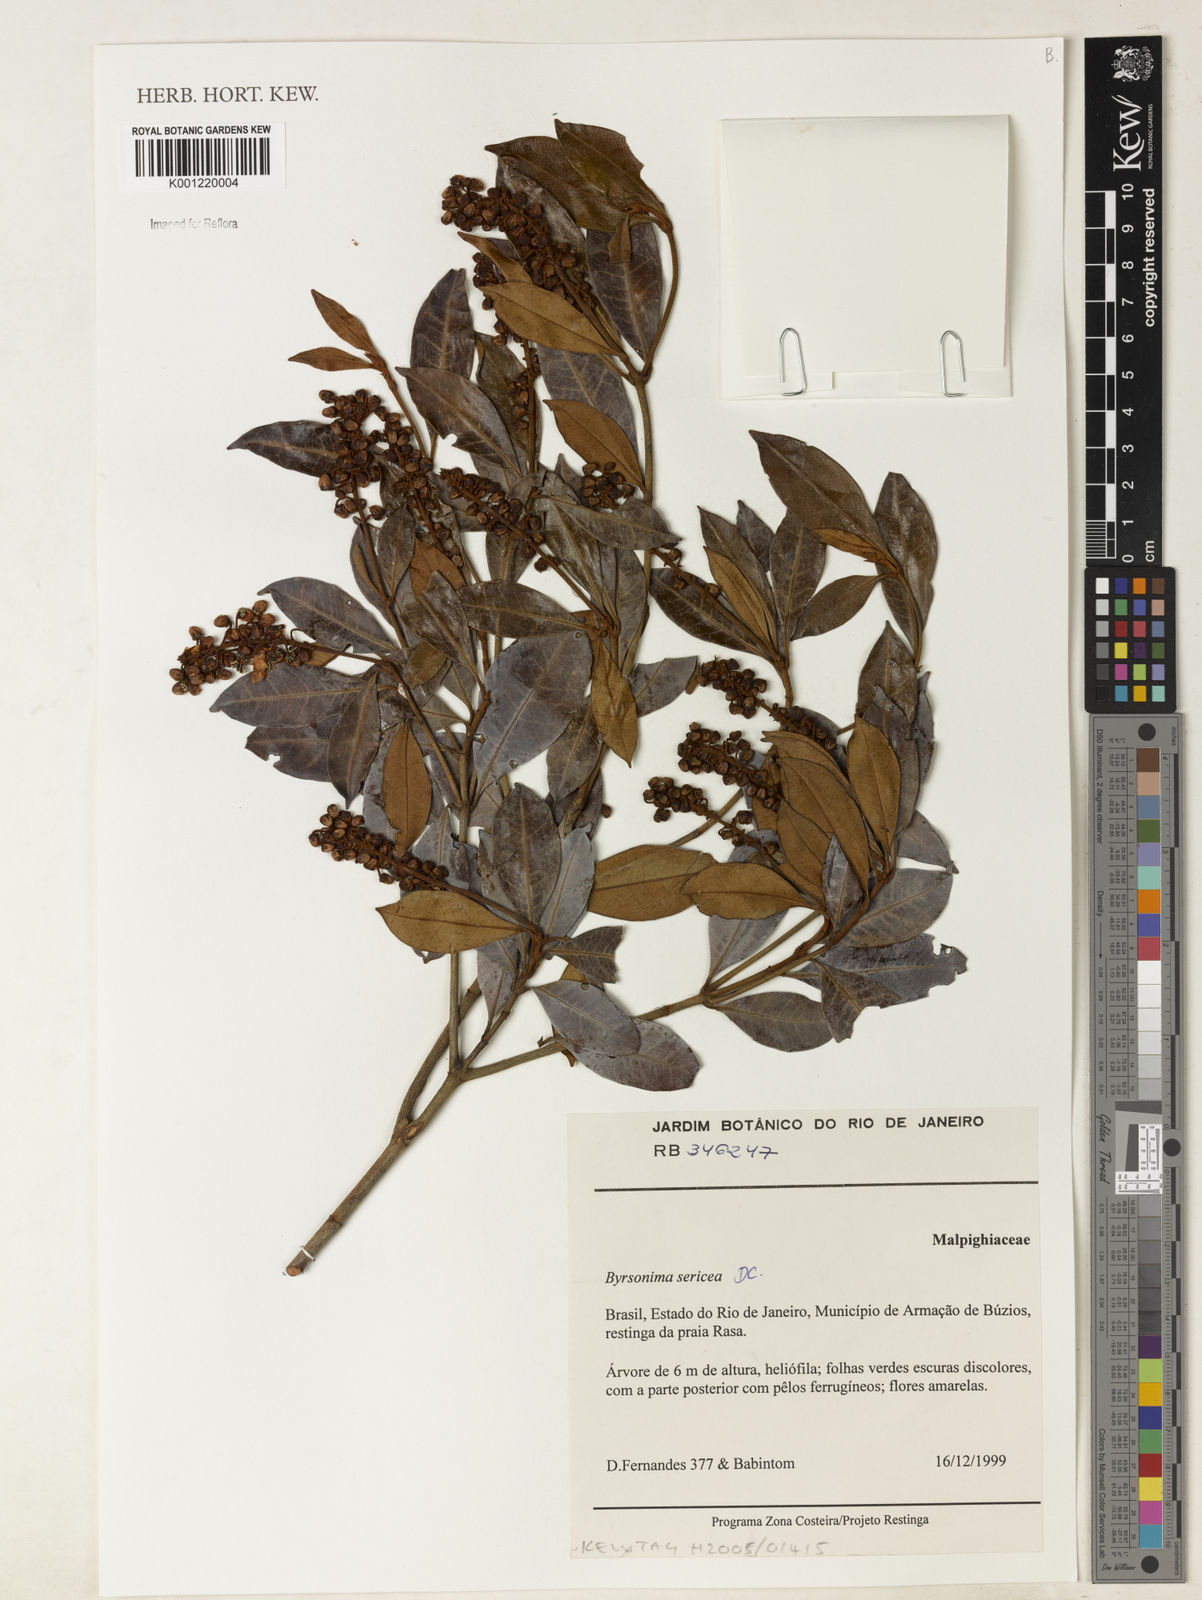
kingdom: Plantae
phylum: Tracheophyta
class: Magnoliopsida
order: Malpighiales
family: Malpighiaceae
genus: Byrsonima
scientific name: Byrsonima sericea
